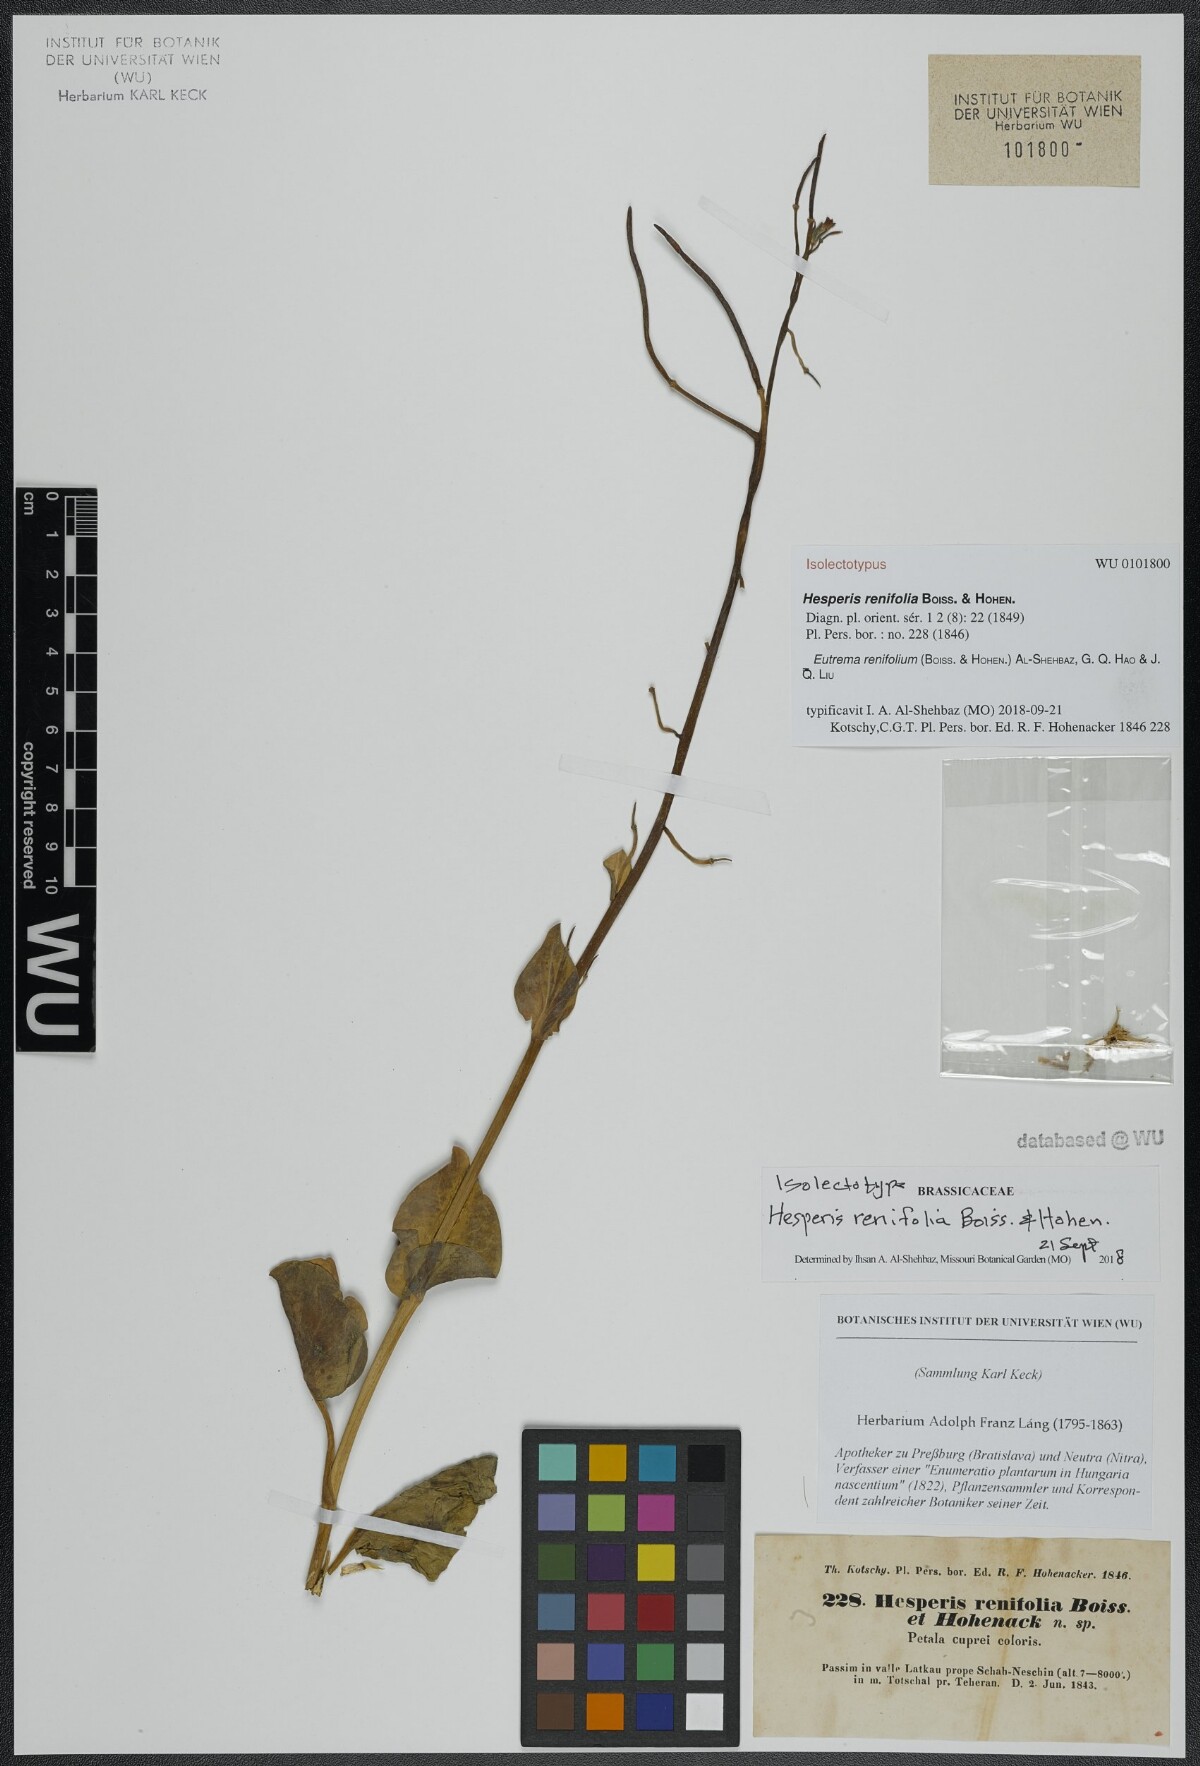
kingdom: Plantae
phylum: Tracheophyta
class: Magnoliopsida
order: Brassicales
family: Brassicaceae
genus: Eutrema
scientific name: Eutrema renifolium
